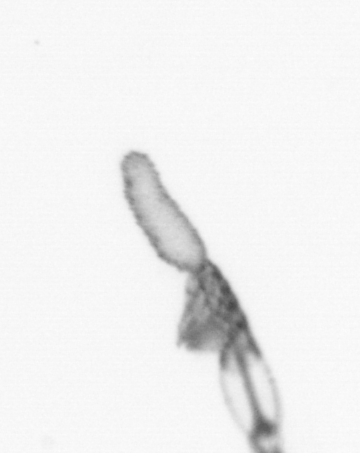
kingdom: Animalia
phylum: Arthropoda
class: Copepoda
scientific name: Copepoda
